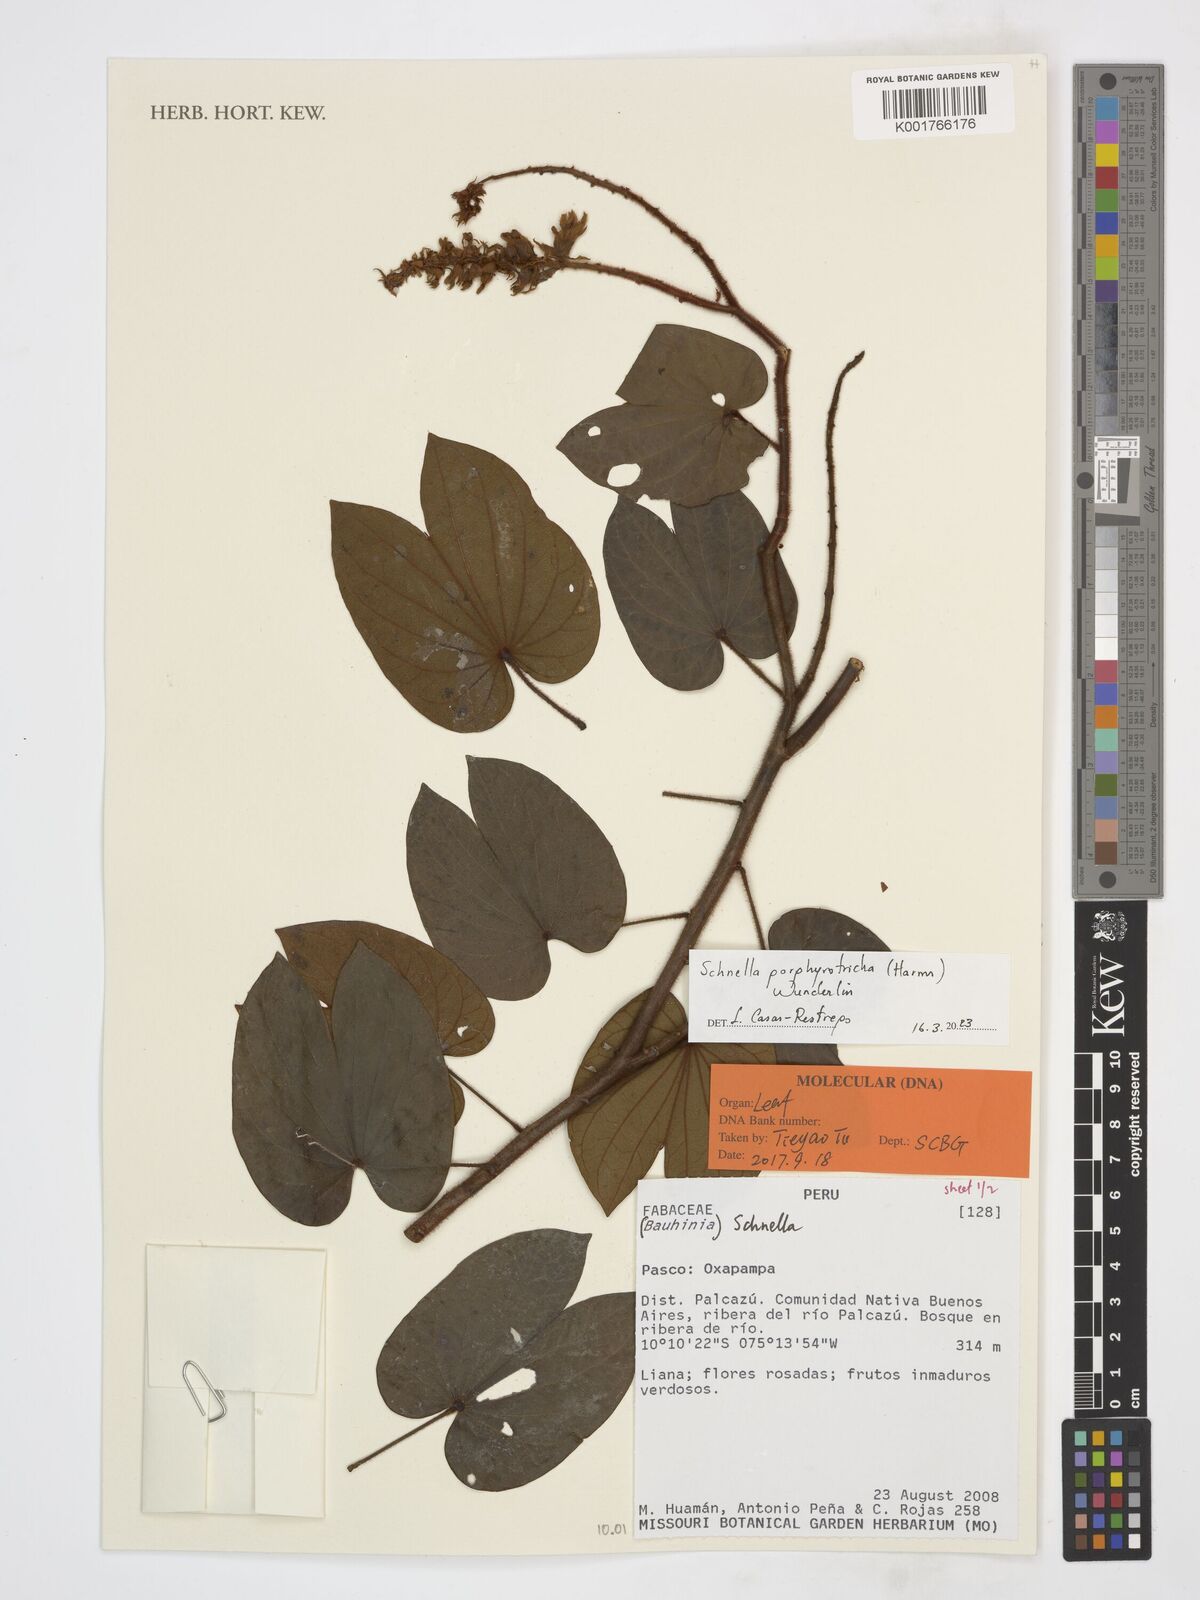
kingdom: Plantae
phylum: Tracheophyta
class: Magnoliopsida
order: Fabales
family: Fabaceae
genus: Schnella
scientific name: Schnella porphyrotricha
